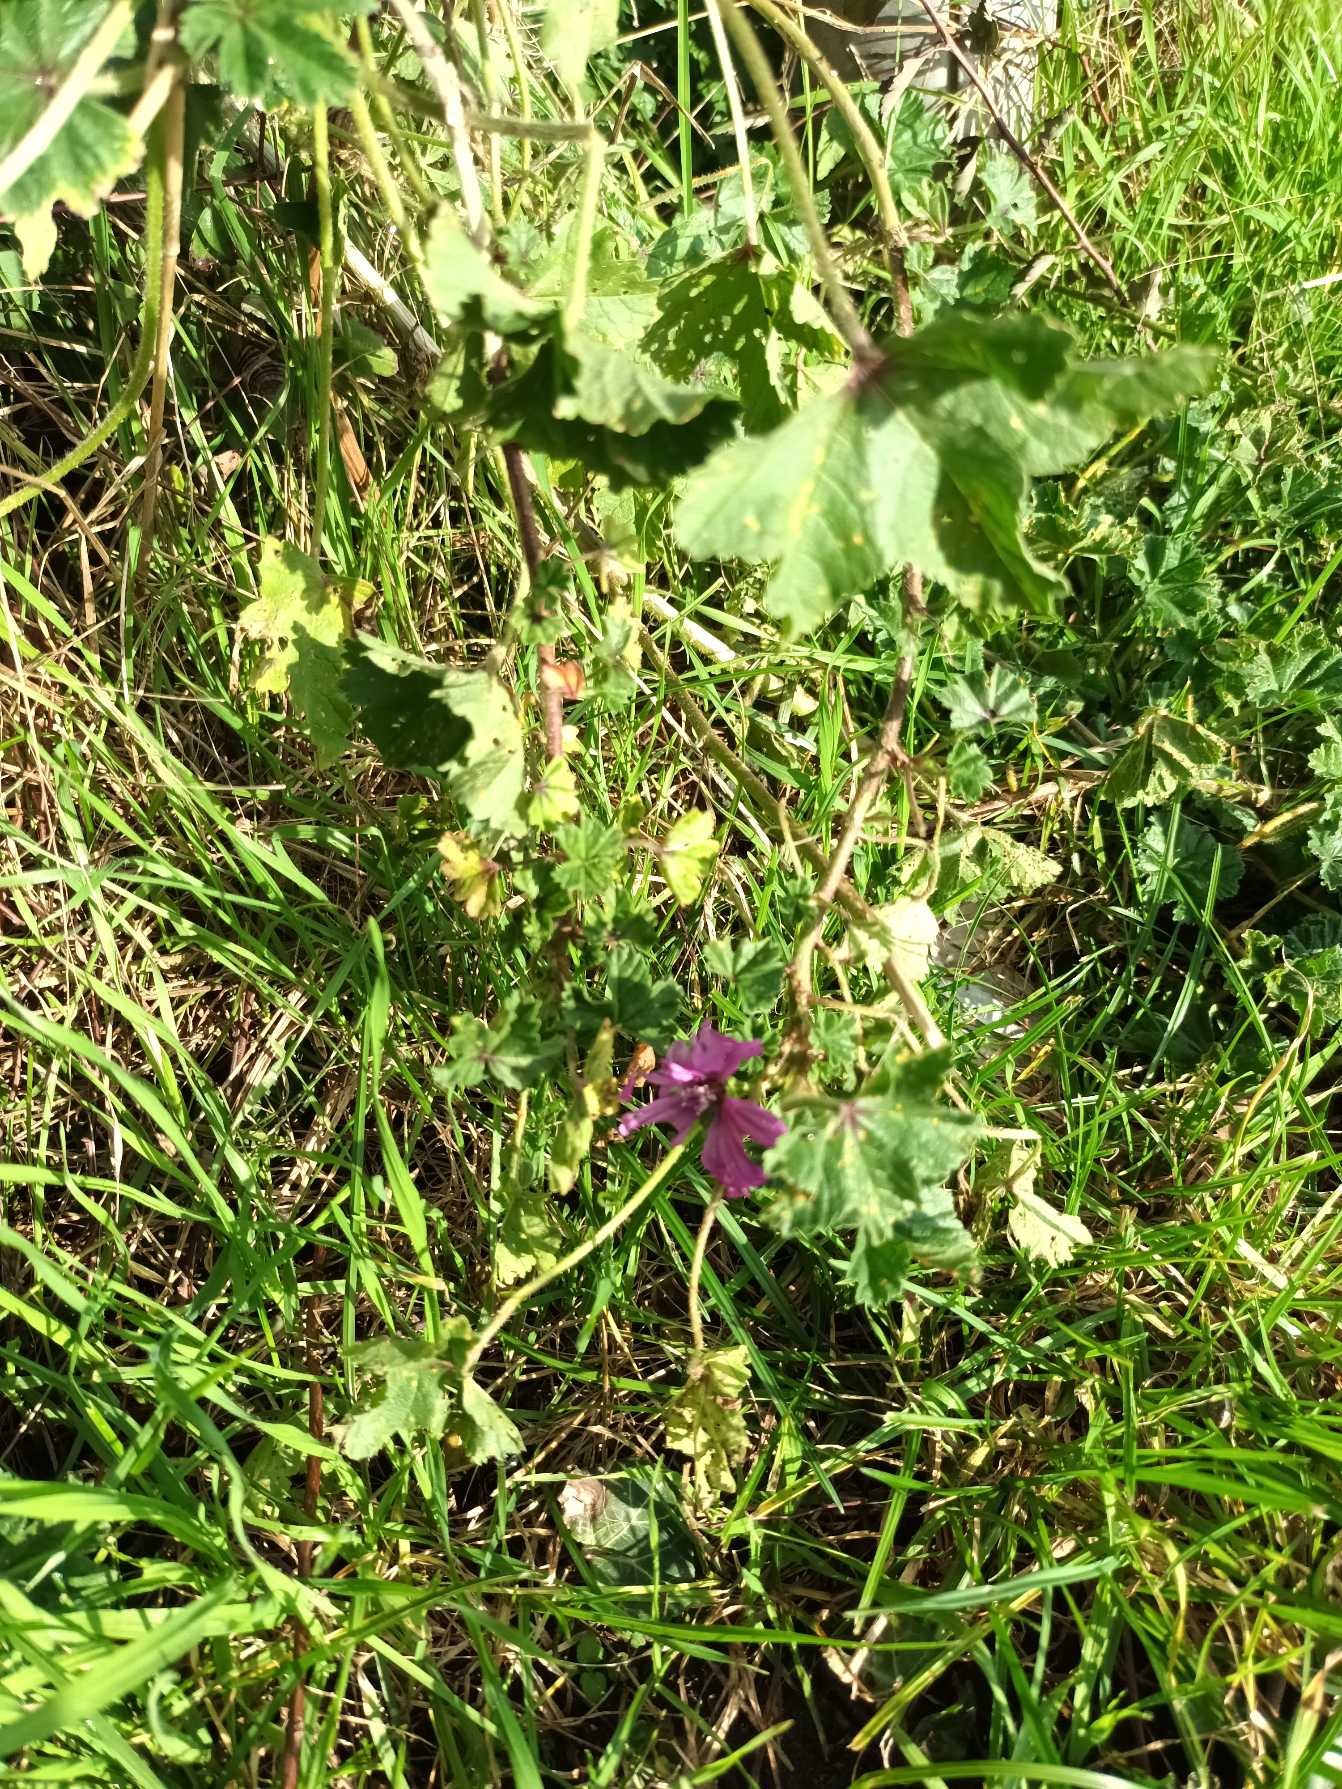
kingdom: Plantae
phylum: Tracheophyta
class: Magnoliopsida
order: Malvales
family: Malvaceae
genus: Malva
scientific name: Malva sylvestris
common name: Almindelig katost
